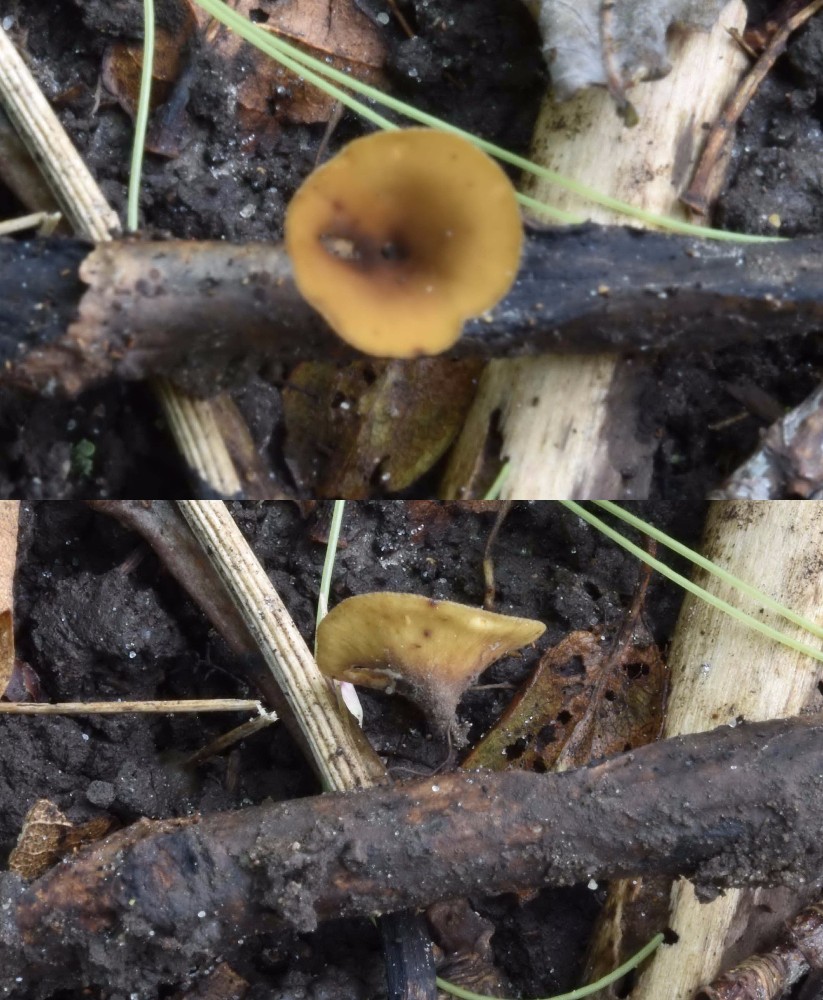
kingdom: Fungi
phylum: Ascomycota
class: Leotiomycetes
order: Helotiales
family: Rutstroemiaceae
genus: Rutstroemia
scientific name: Rutstroemia firma
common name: gren-brunskive
